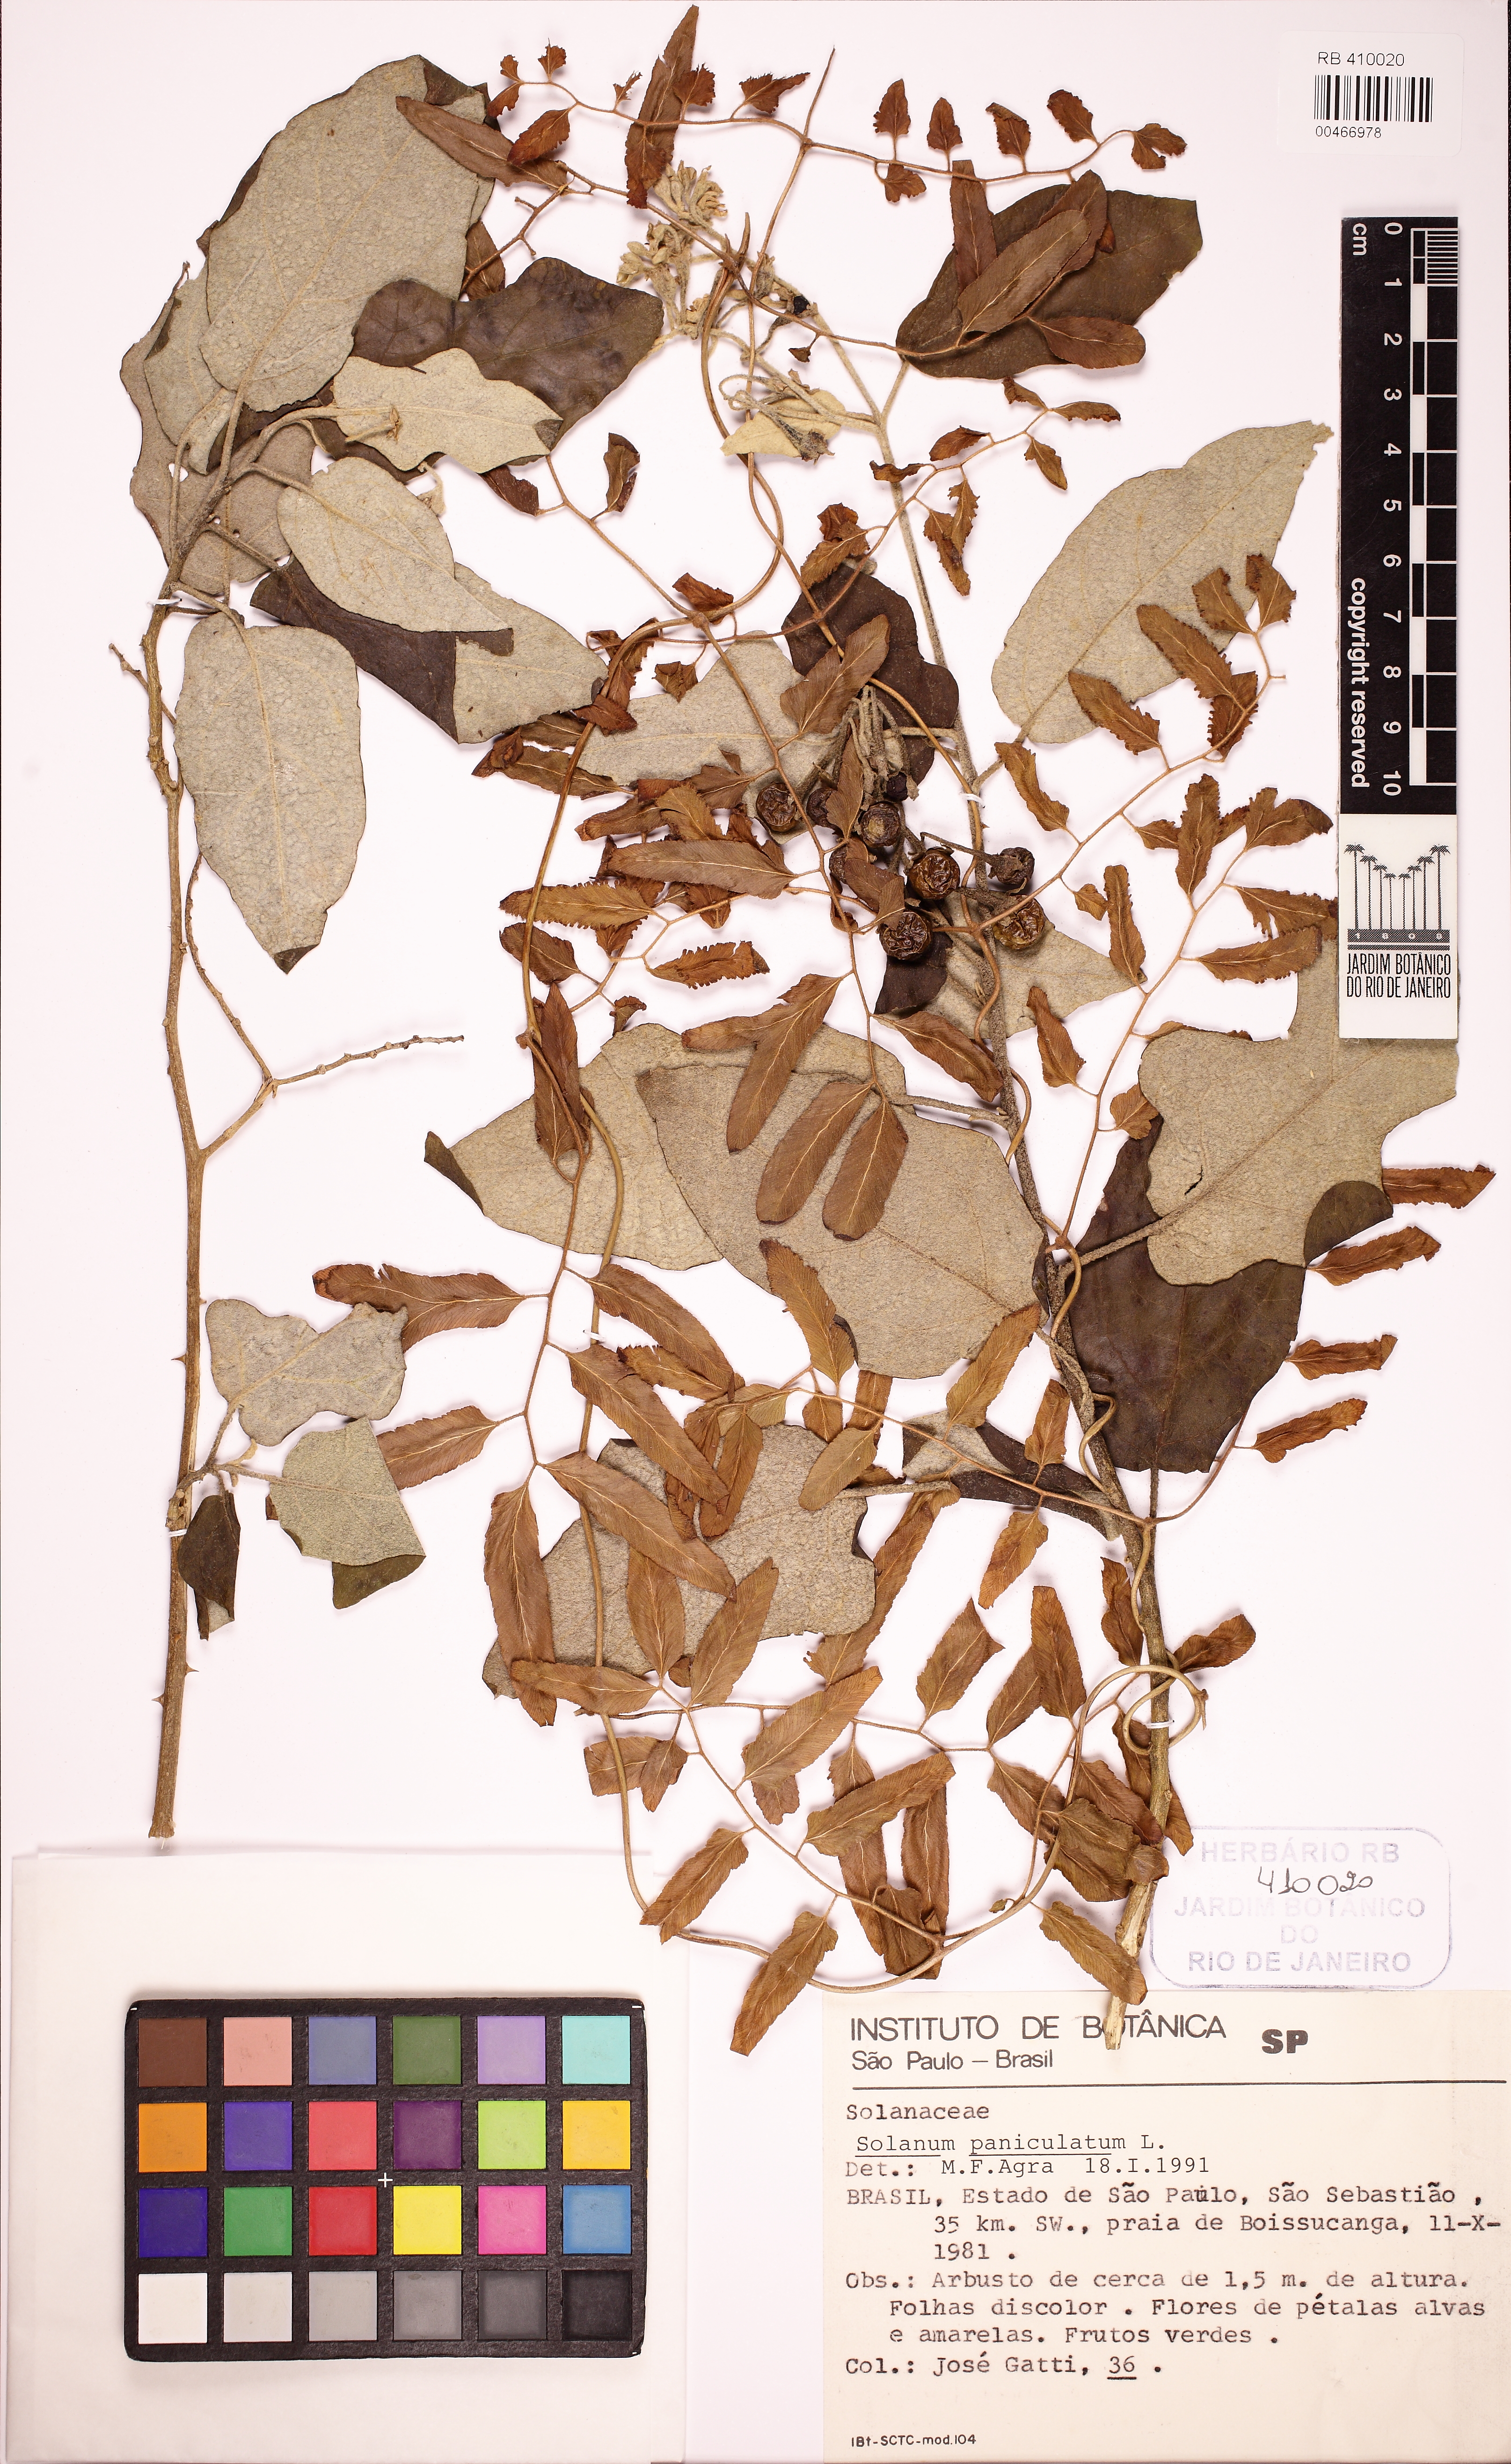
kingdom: Plantae
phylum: Tracheophyta
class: Magnoliopsida
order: Solanales
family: Solanaceae
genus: Solanum
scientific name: Solanum paniculatum
